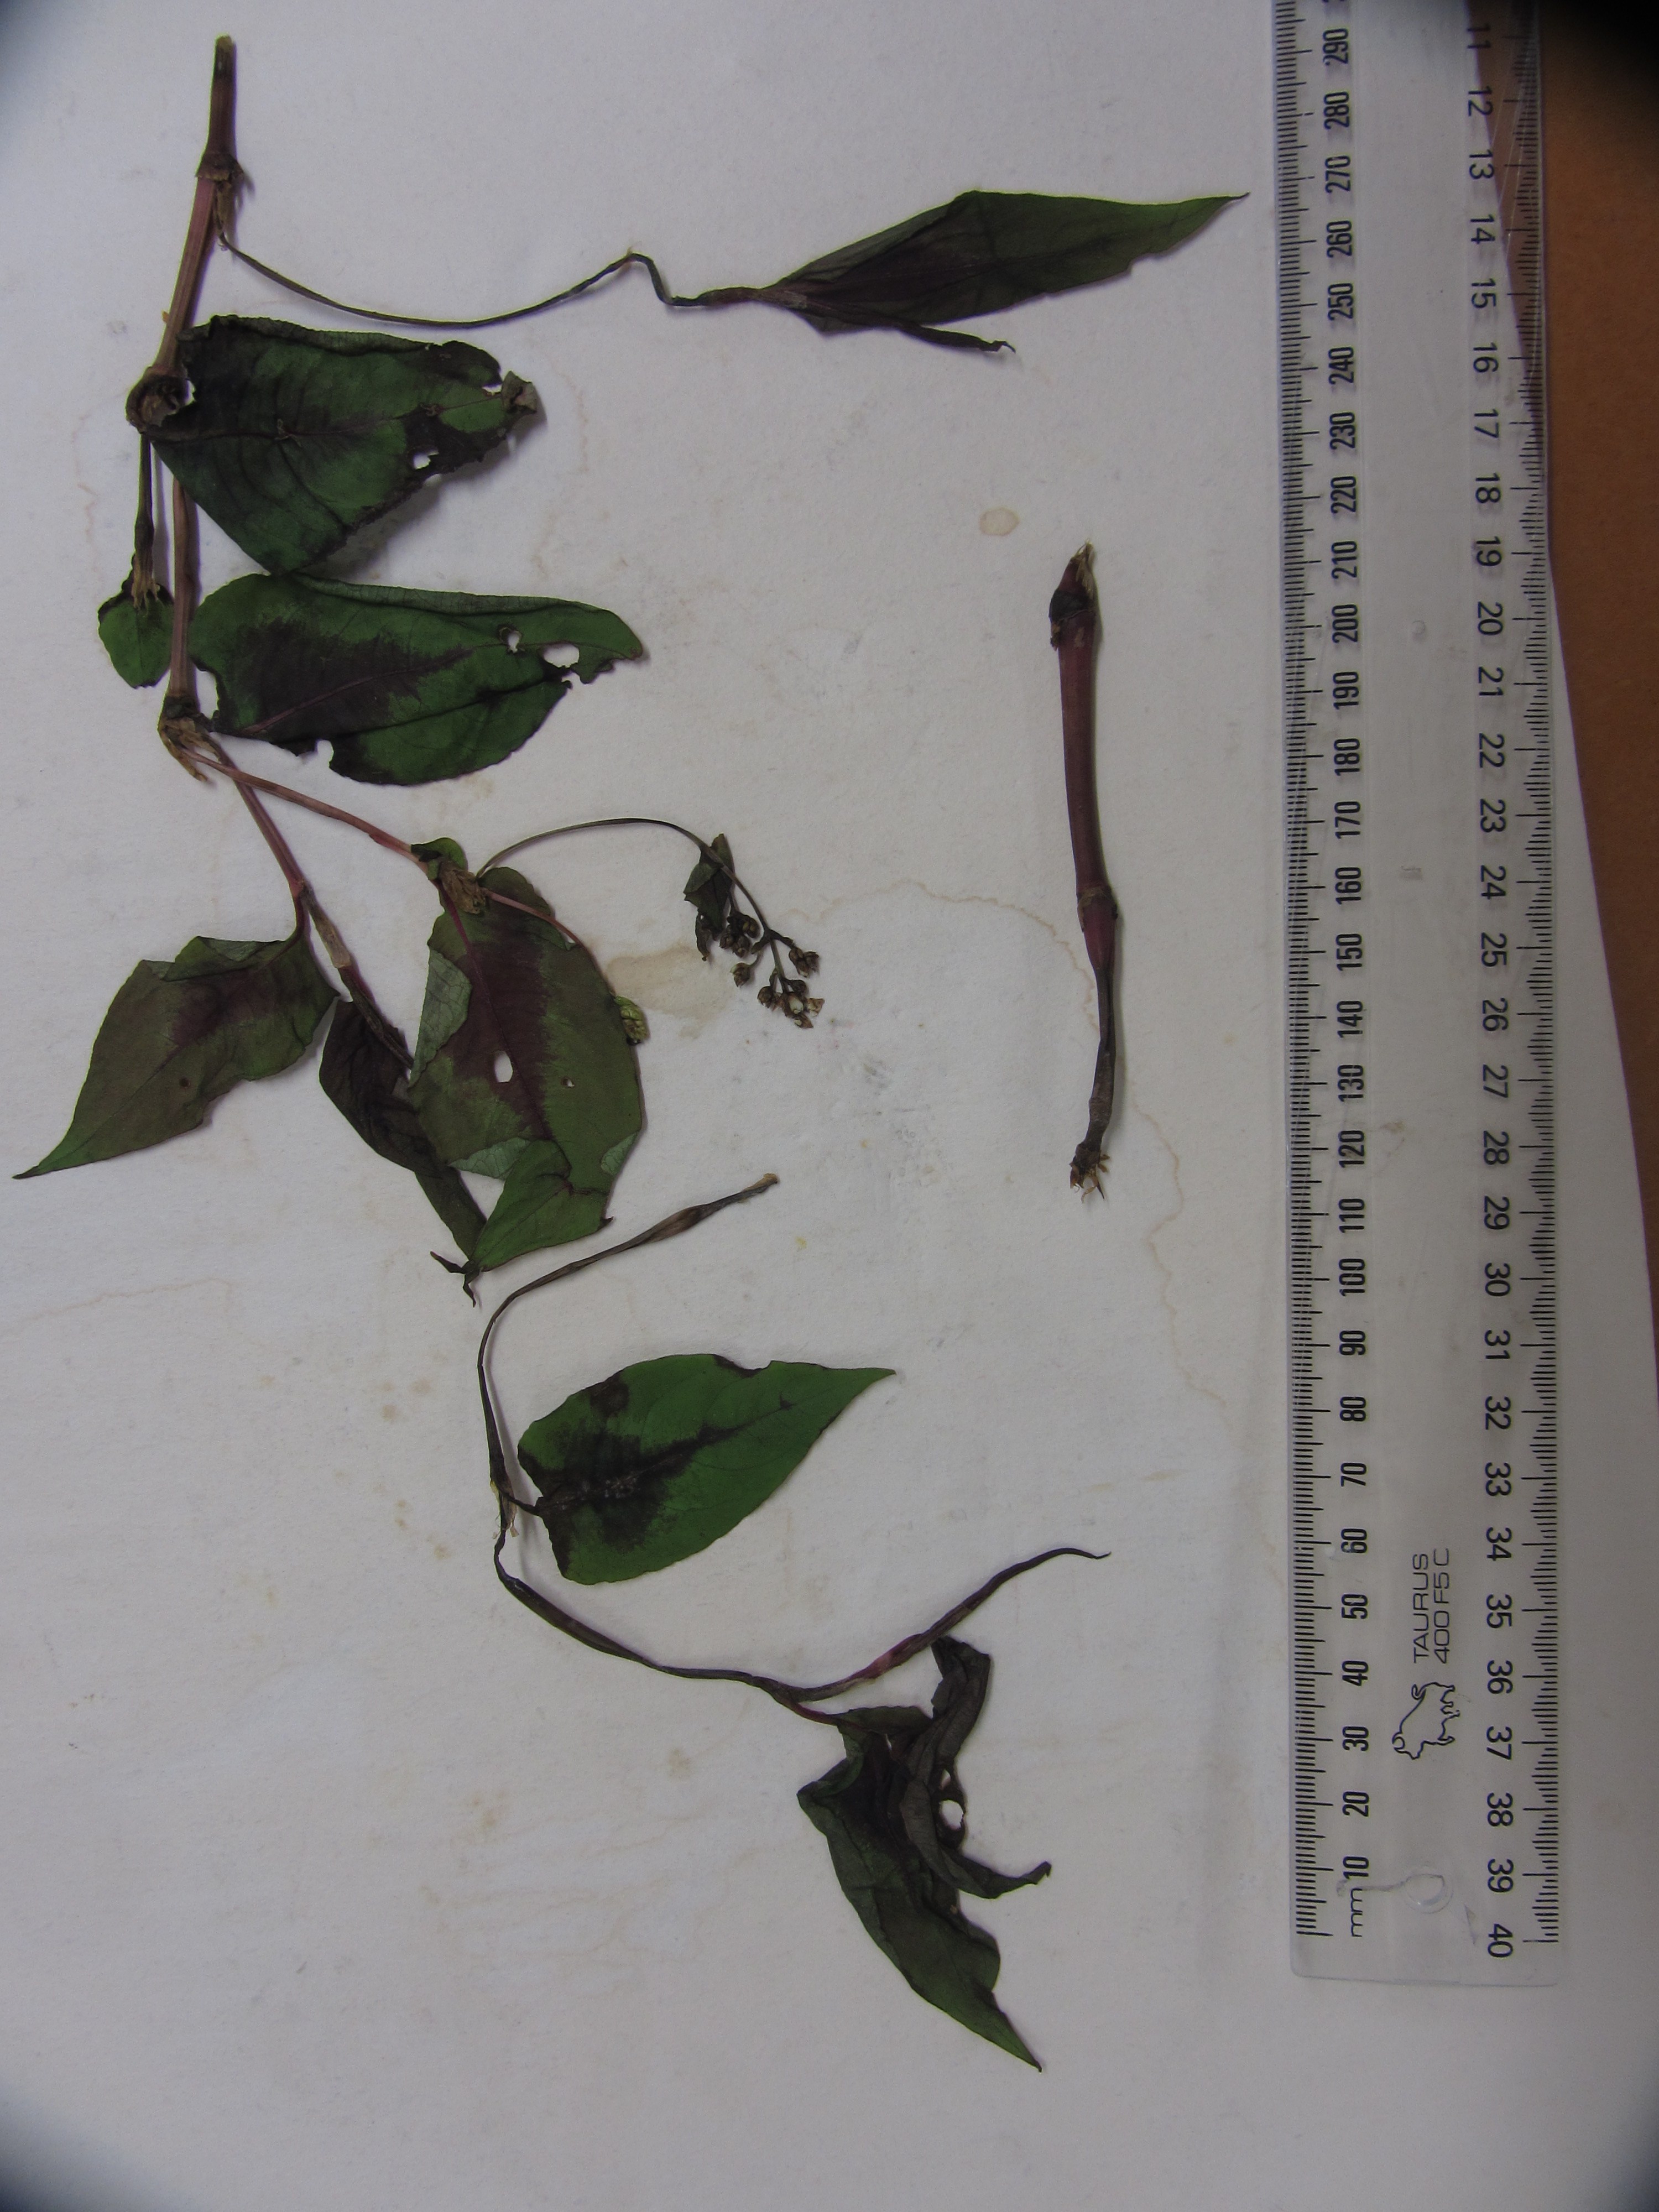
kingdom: Plantae
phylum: Tracheophyta
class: Magnoliopsida
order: Caryophyllales
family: Polygonaceae
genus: Persicaria
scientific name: Persicaria chinensis
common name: Chinese knotweed
